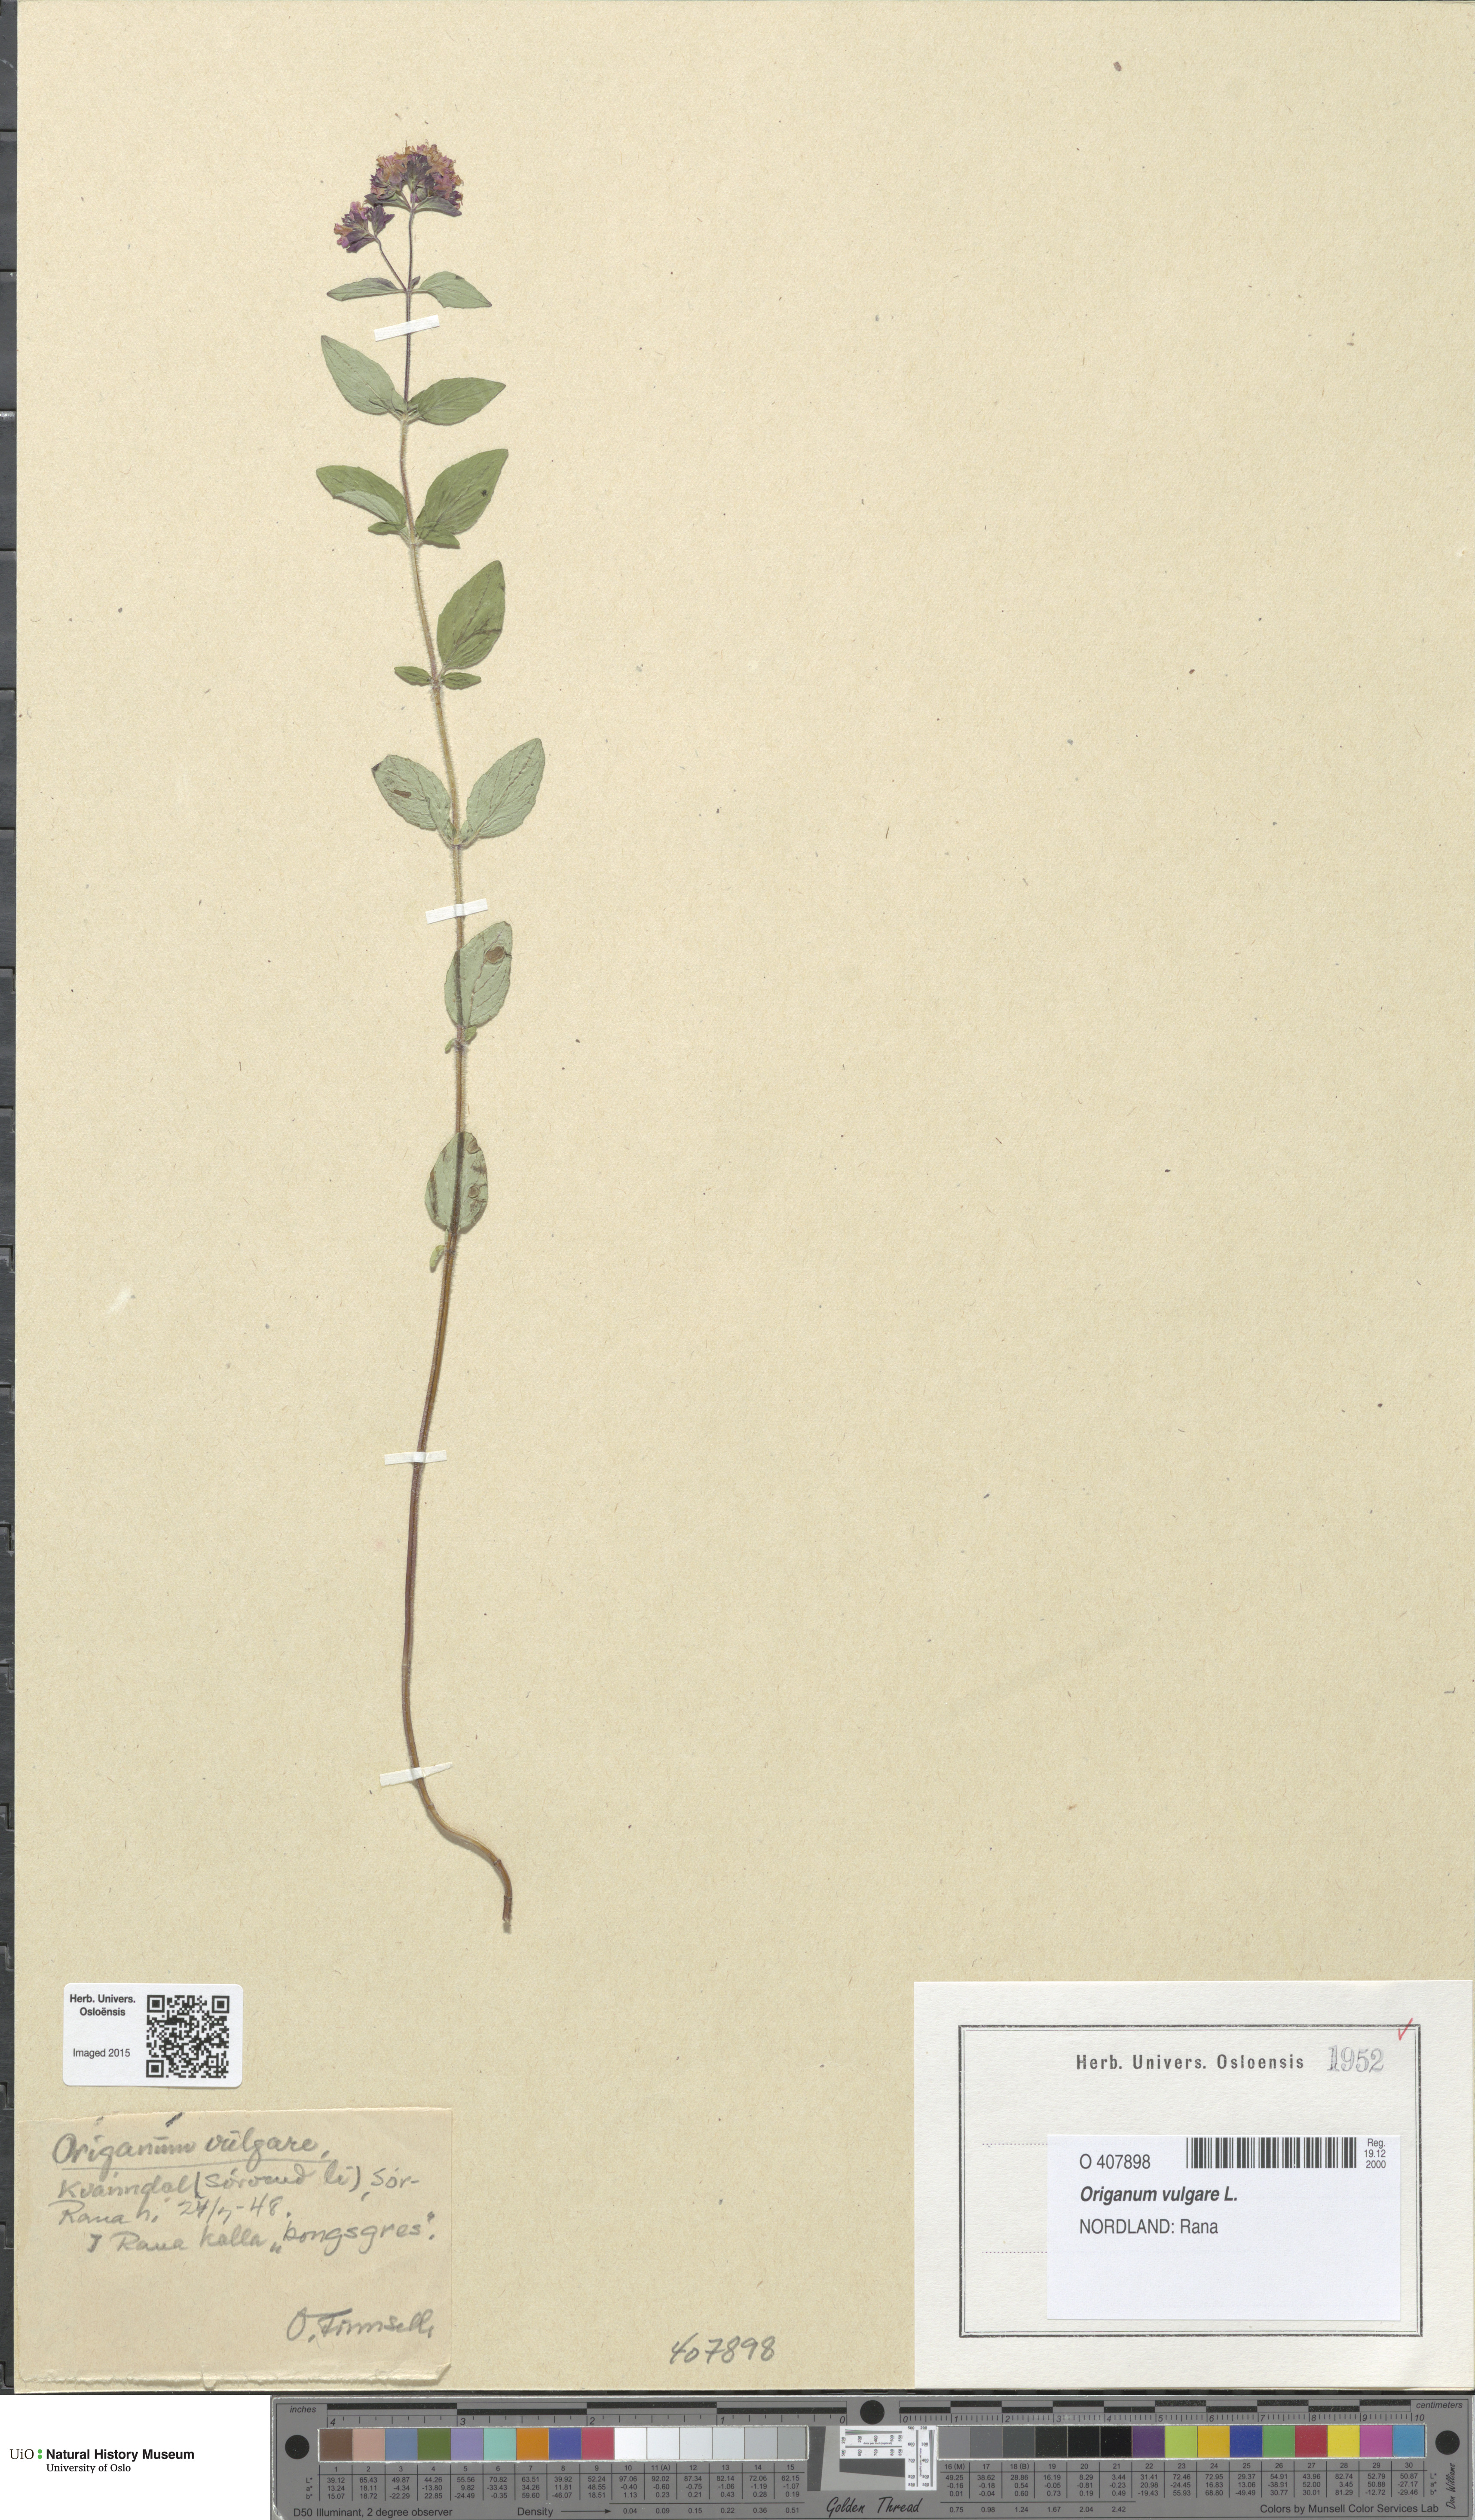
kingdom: Plantae
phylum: Tracheophyta
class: Magnoliopsida
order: Lamiales
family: Lamiaceae
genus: Origanum
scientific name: Origanum vulgare
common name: Wild marjoram
